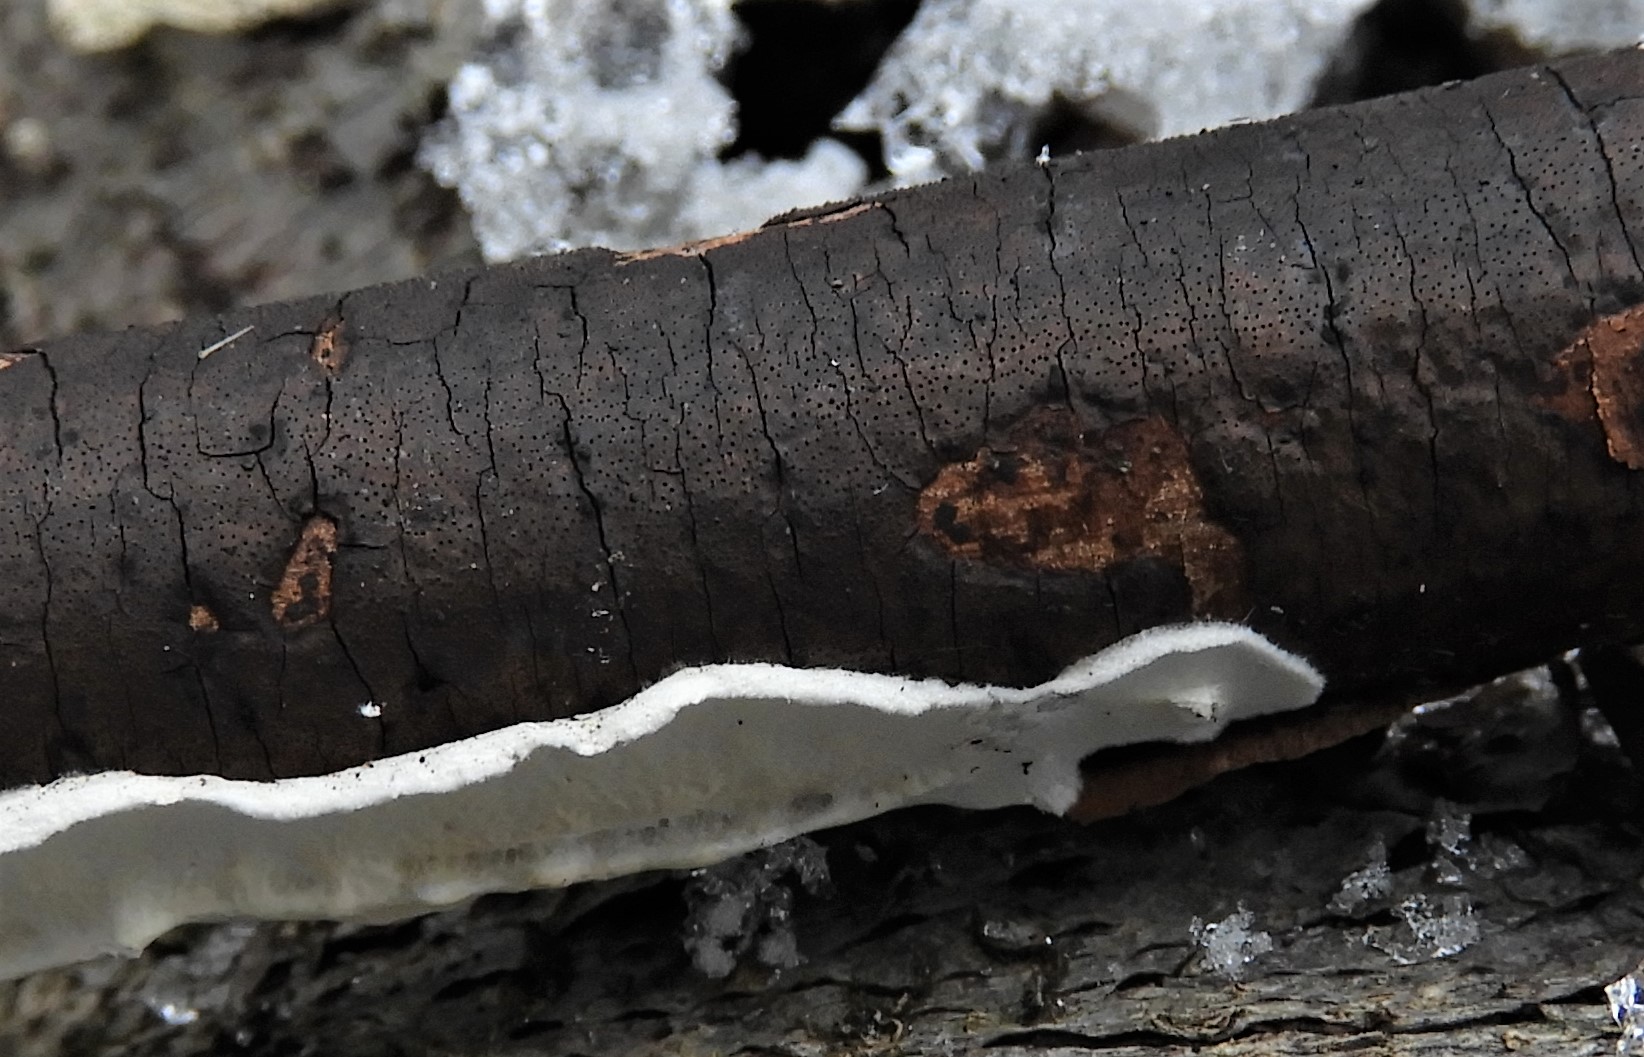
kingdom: Fungi
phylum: Ascomycota
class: Sordariomycetes
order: Xylariales
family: Diatrypaceae
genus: Diatrype
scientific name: Diatrype decorticata
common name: barksprænger-kulskorpe
